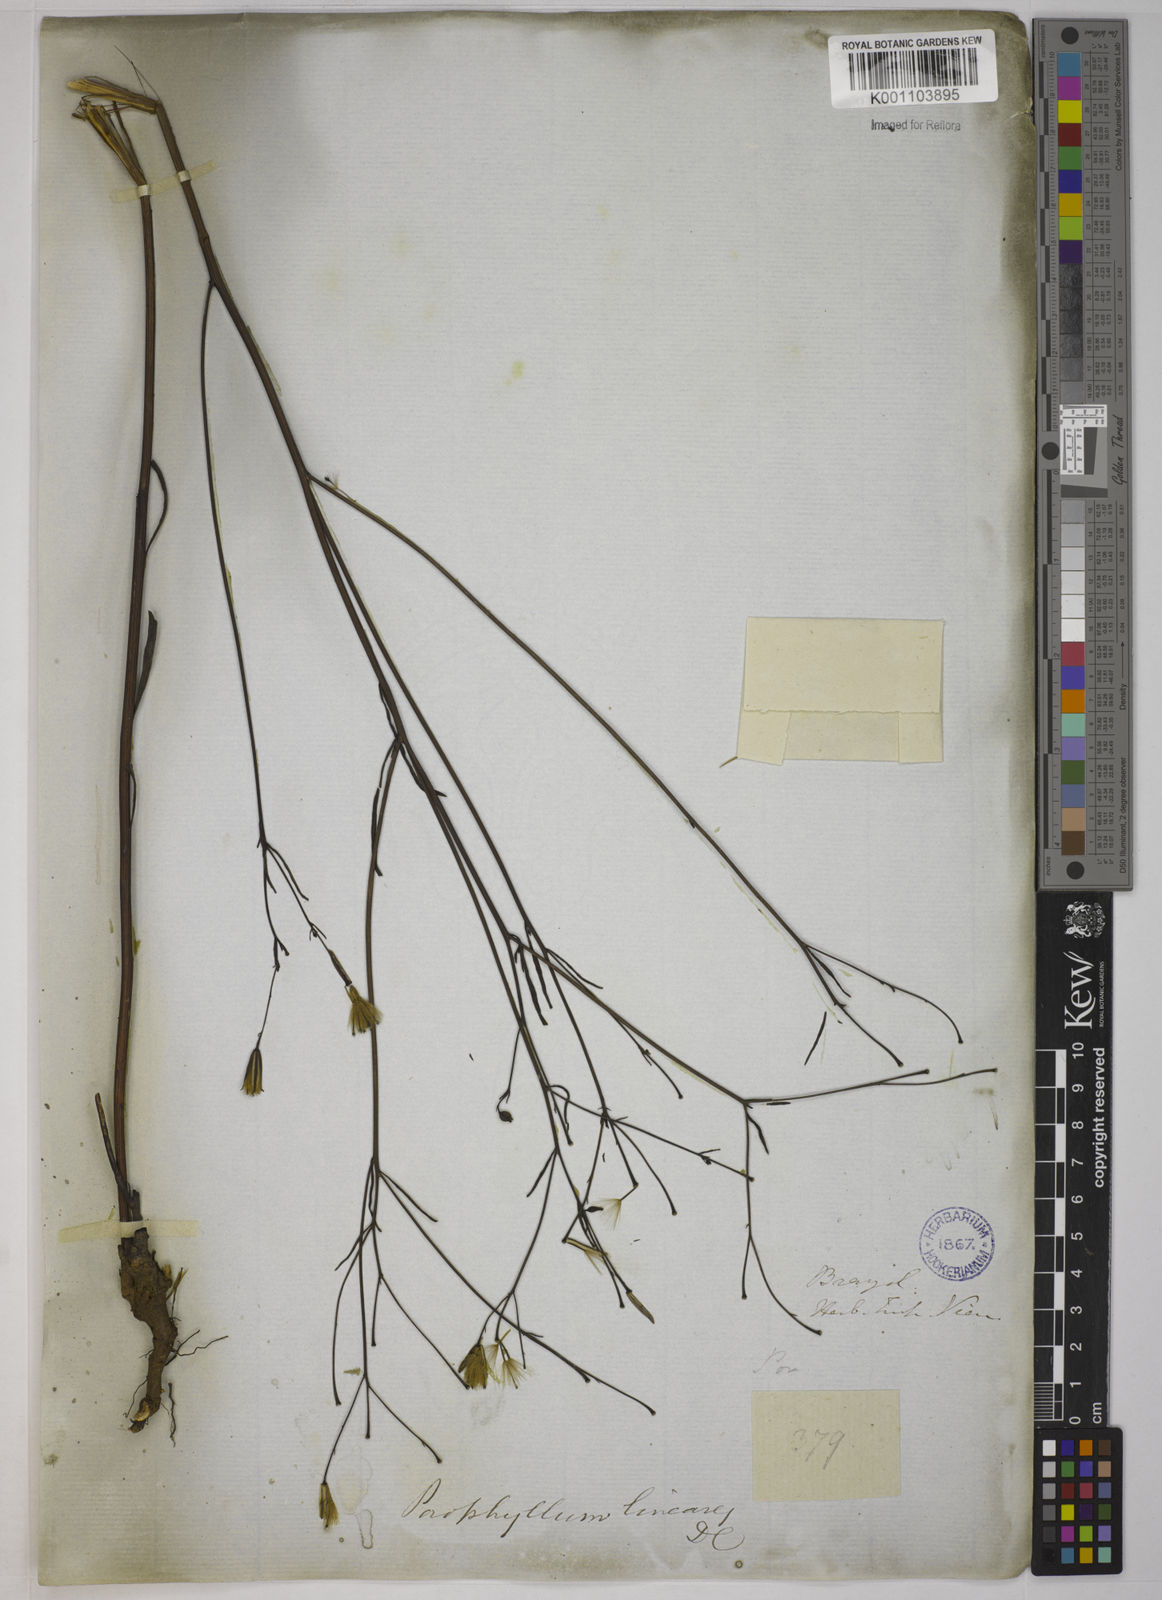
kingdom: Plantae
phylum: Tracheophyta
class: Magnoliopsida
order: Asterales
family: Asteraceae
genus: Porophyllum
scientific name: Porophyllum obscurum
